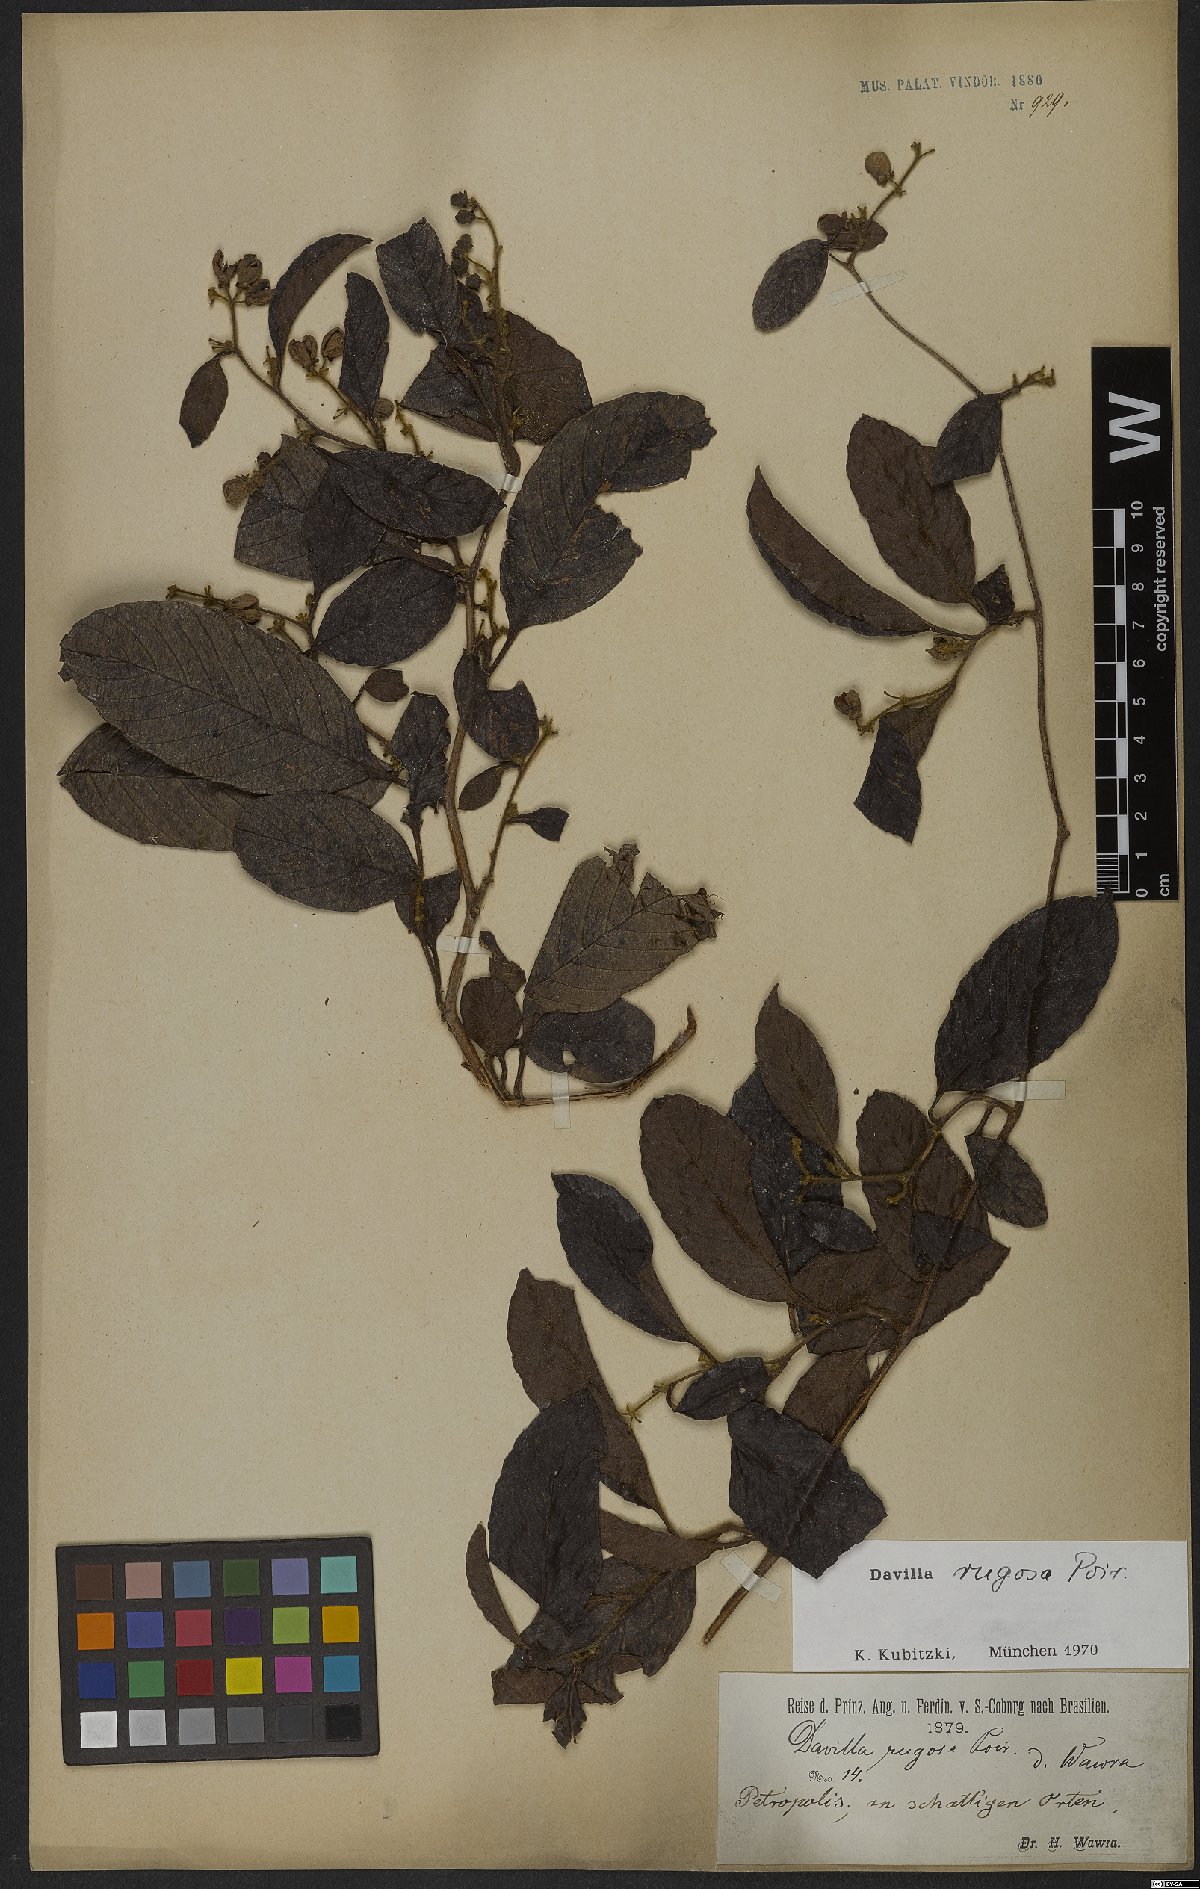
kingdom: Plantae
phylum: Tracheophyta
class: Magnoliopsida
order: Dilleniales
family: Dilleniaceae
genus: Davilla
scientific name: Davilla rugosa
